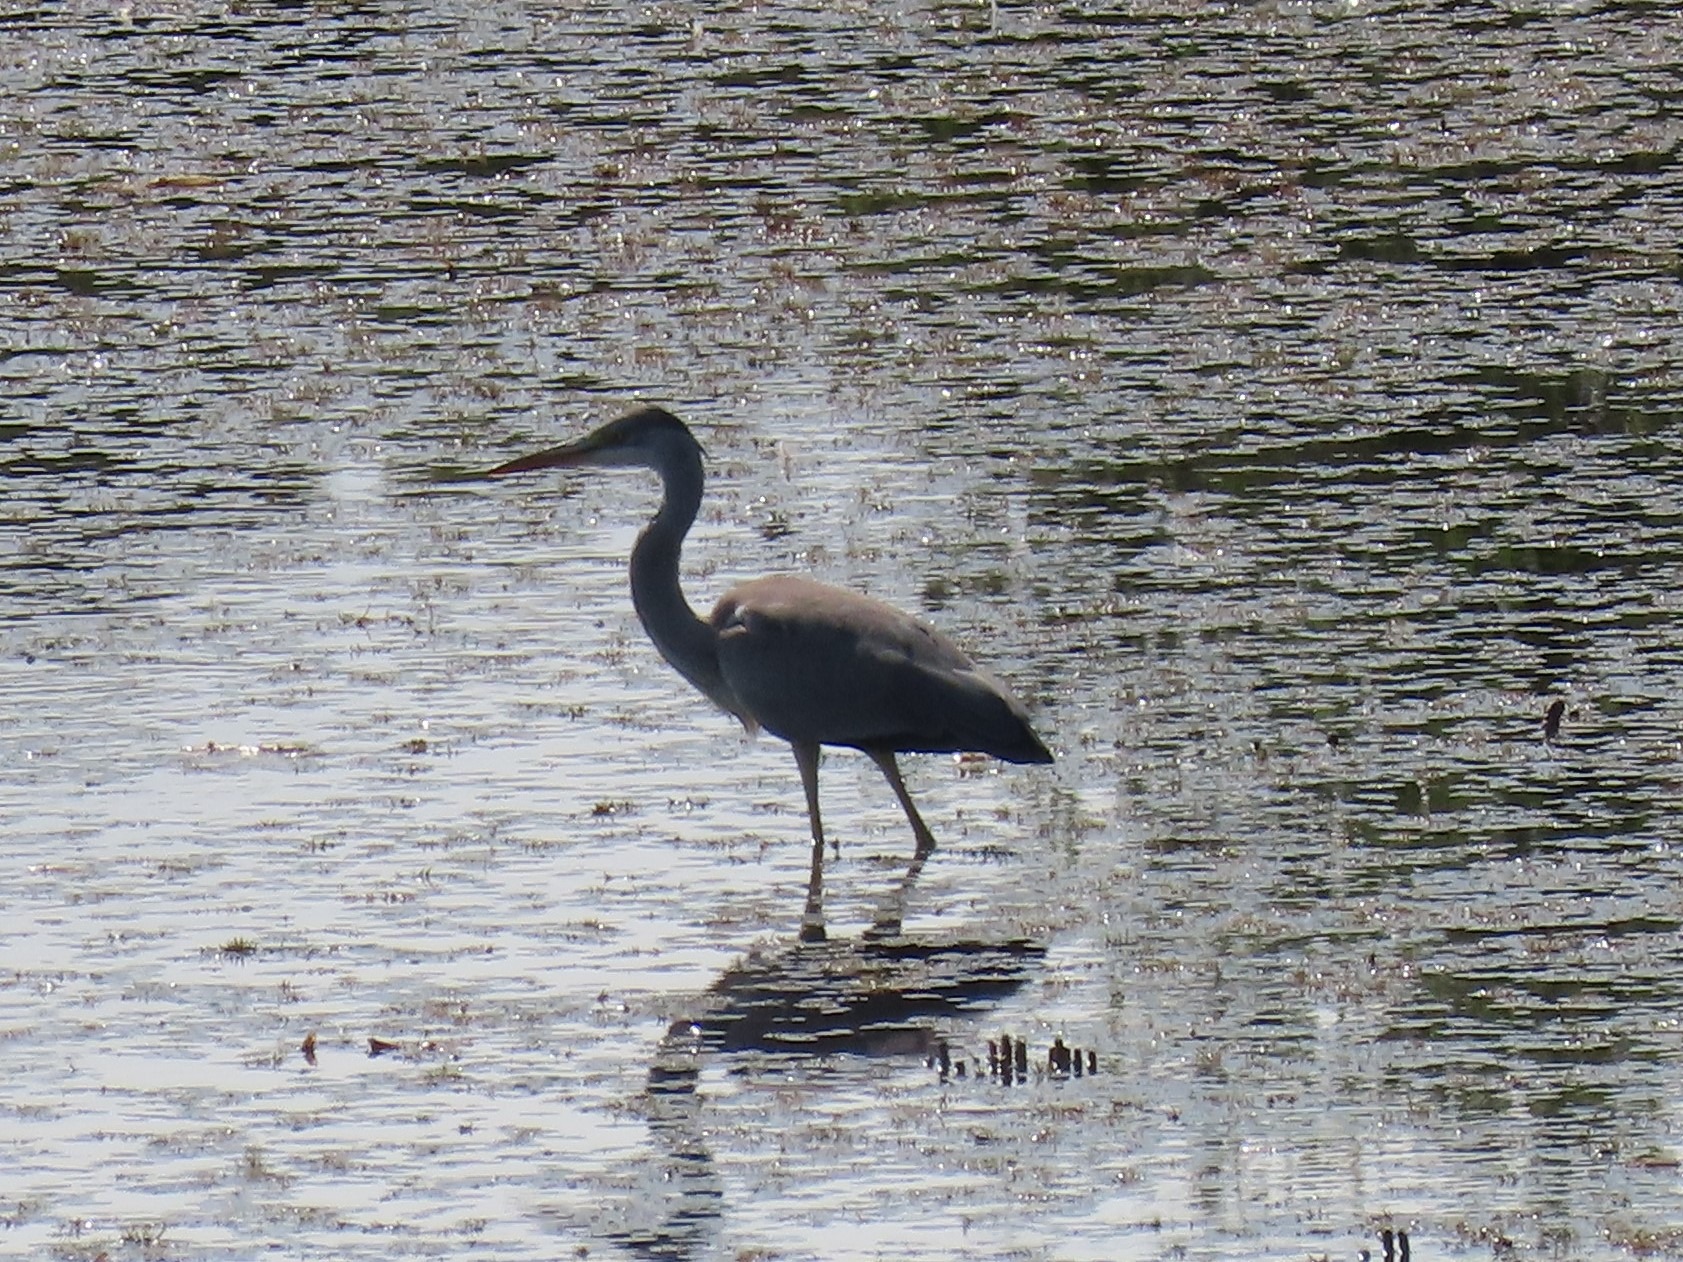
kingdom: Animalia
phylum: Chordata
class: Aves
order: Pelecaniformes
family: Ardeidae
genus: Ardea
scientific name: Ardea cinerea
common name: Fiskehejre
